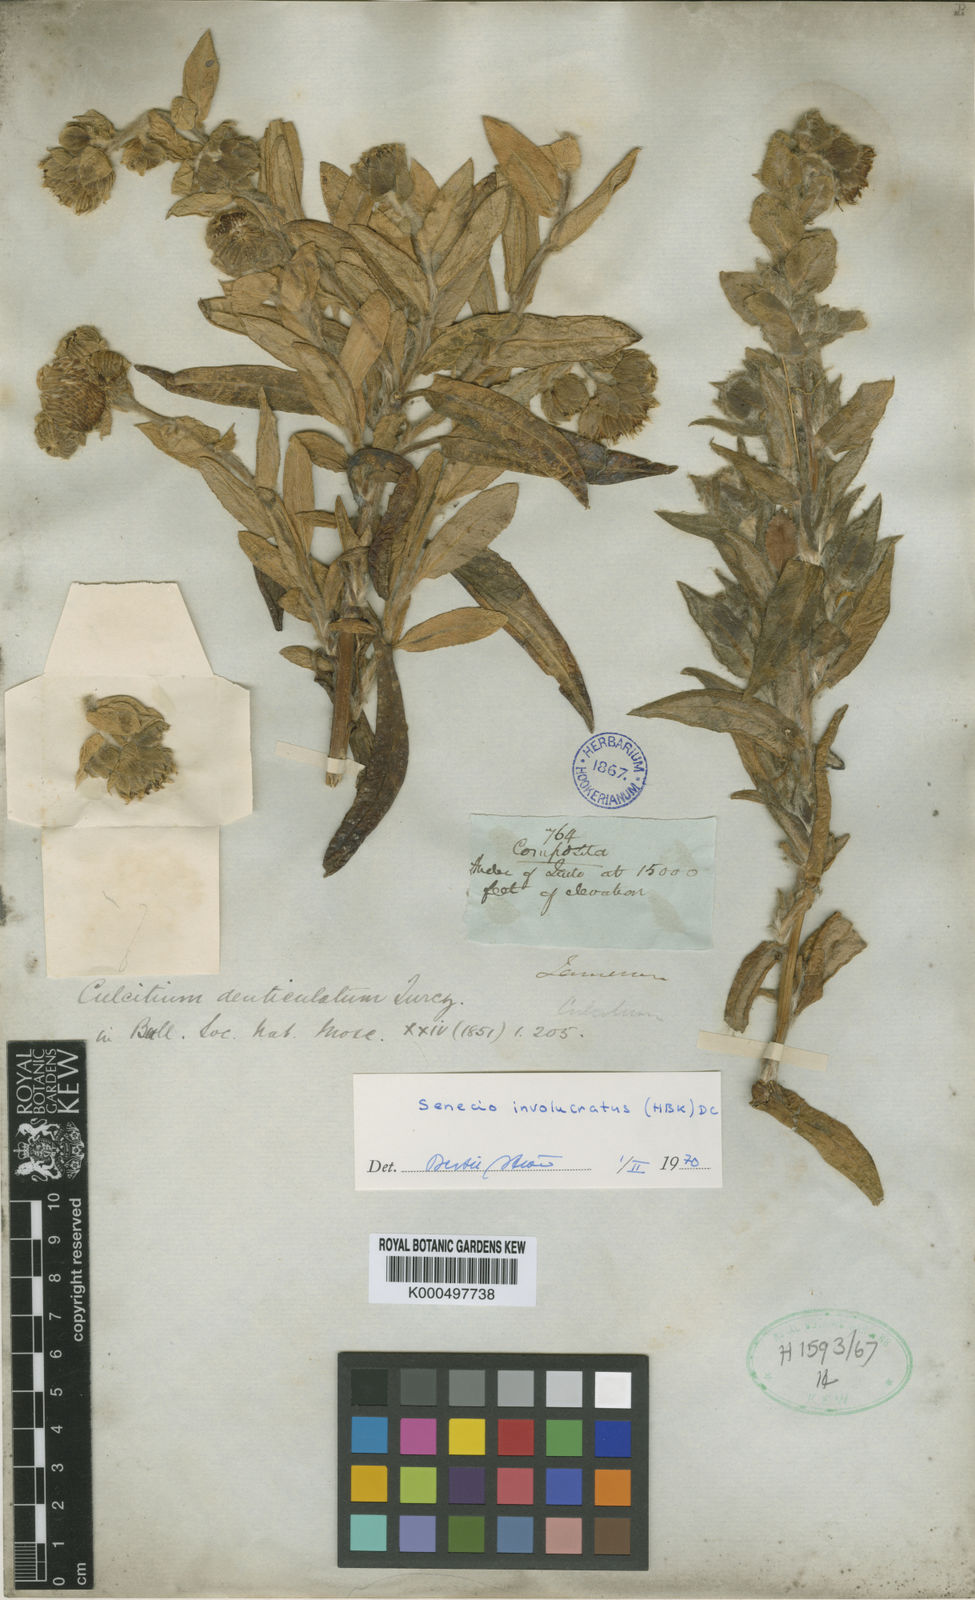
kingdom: Plantae
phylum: Tracheophyta
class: Magnoliopsida
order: Asterales
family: Asteraceae
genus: Aetheolaena
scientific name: Aetheolaena
